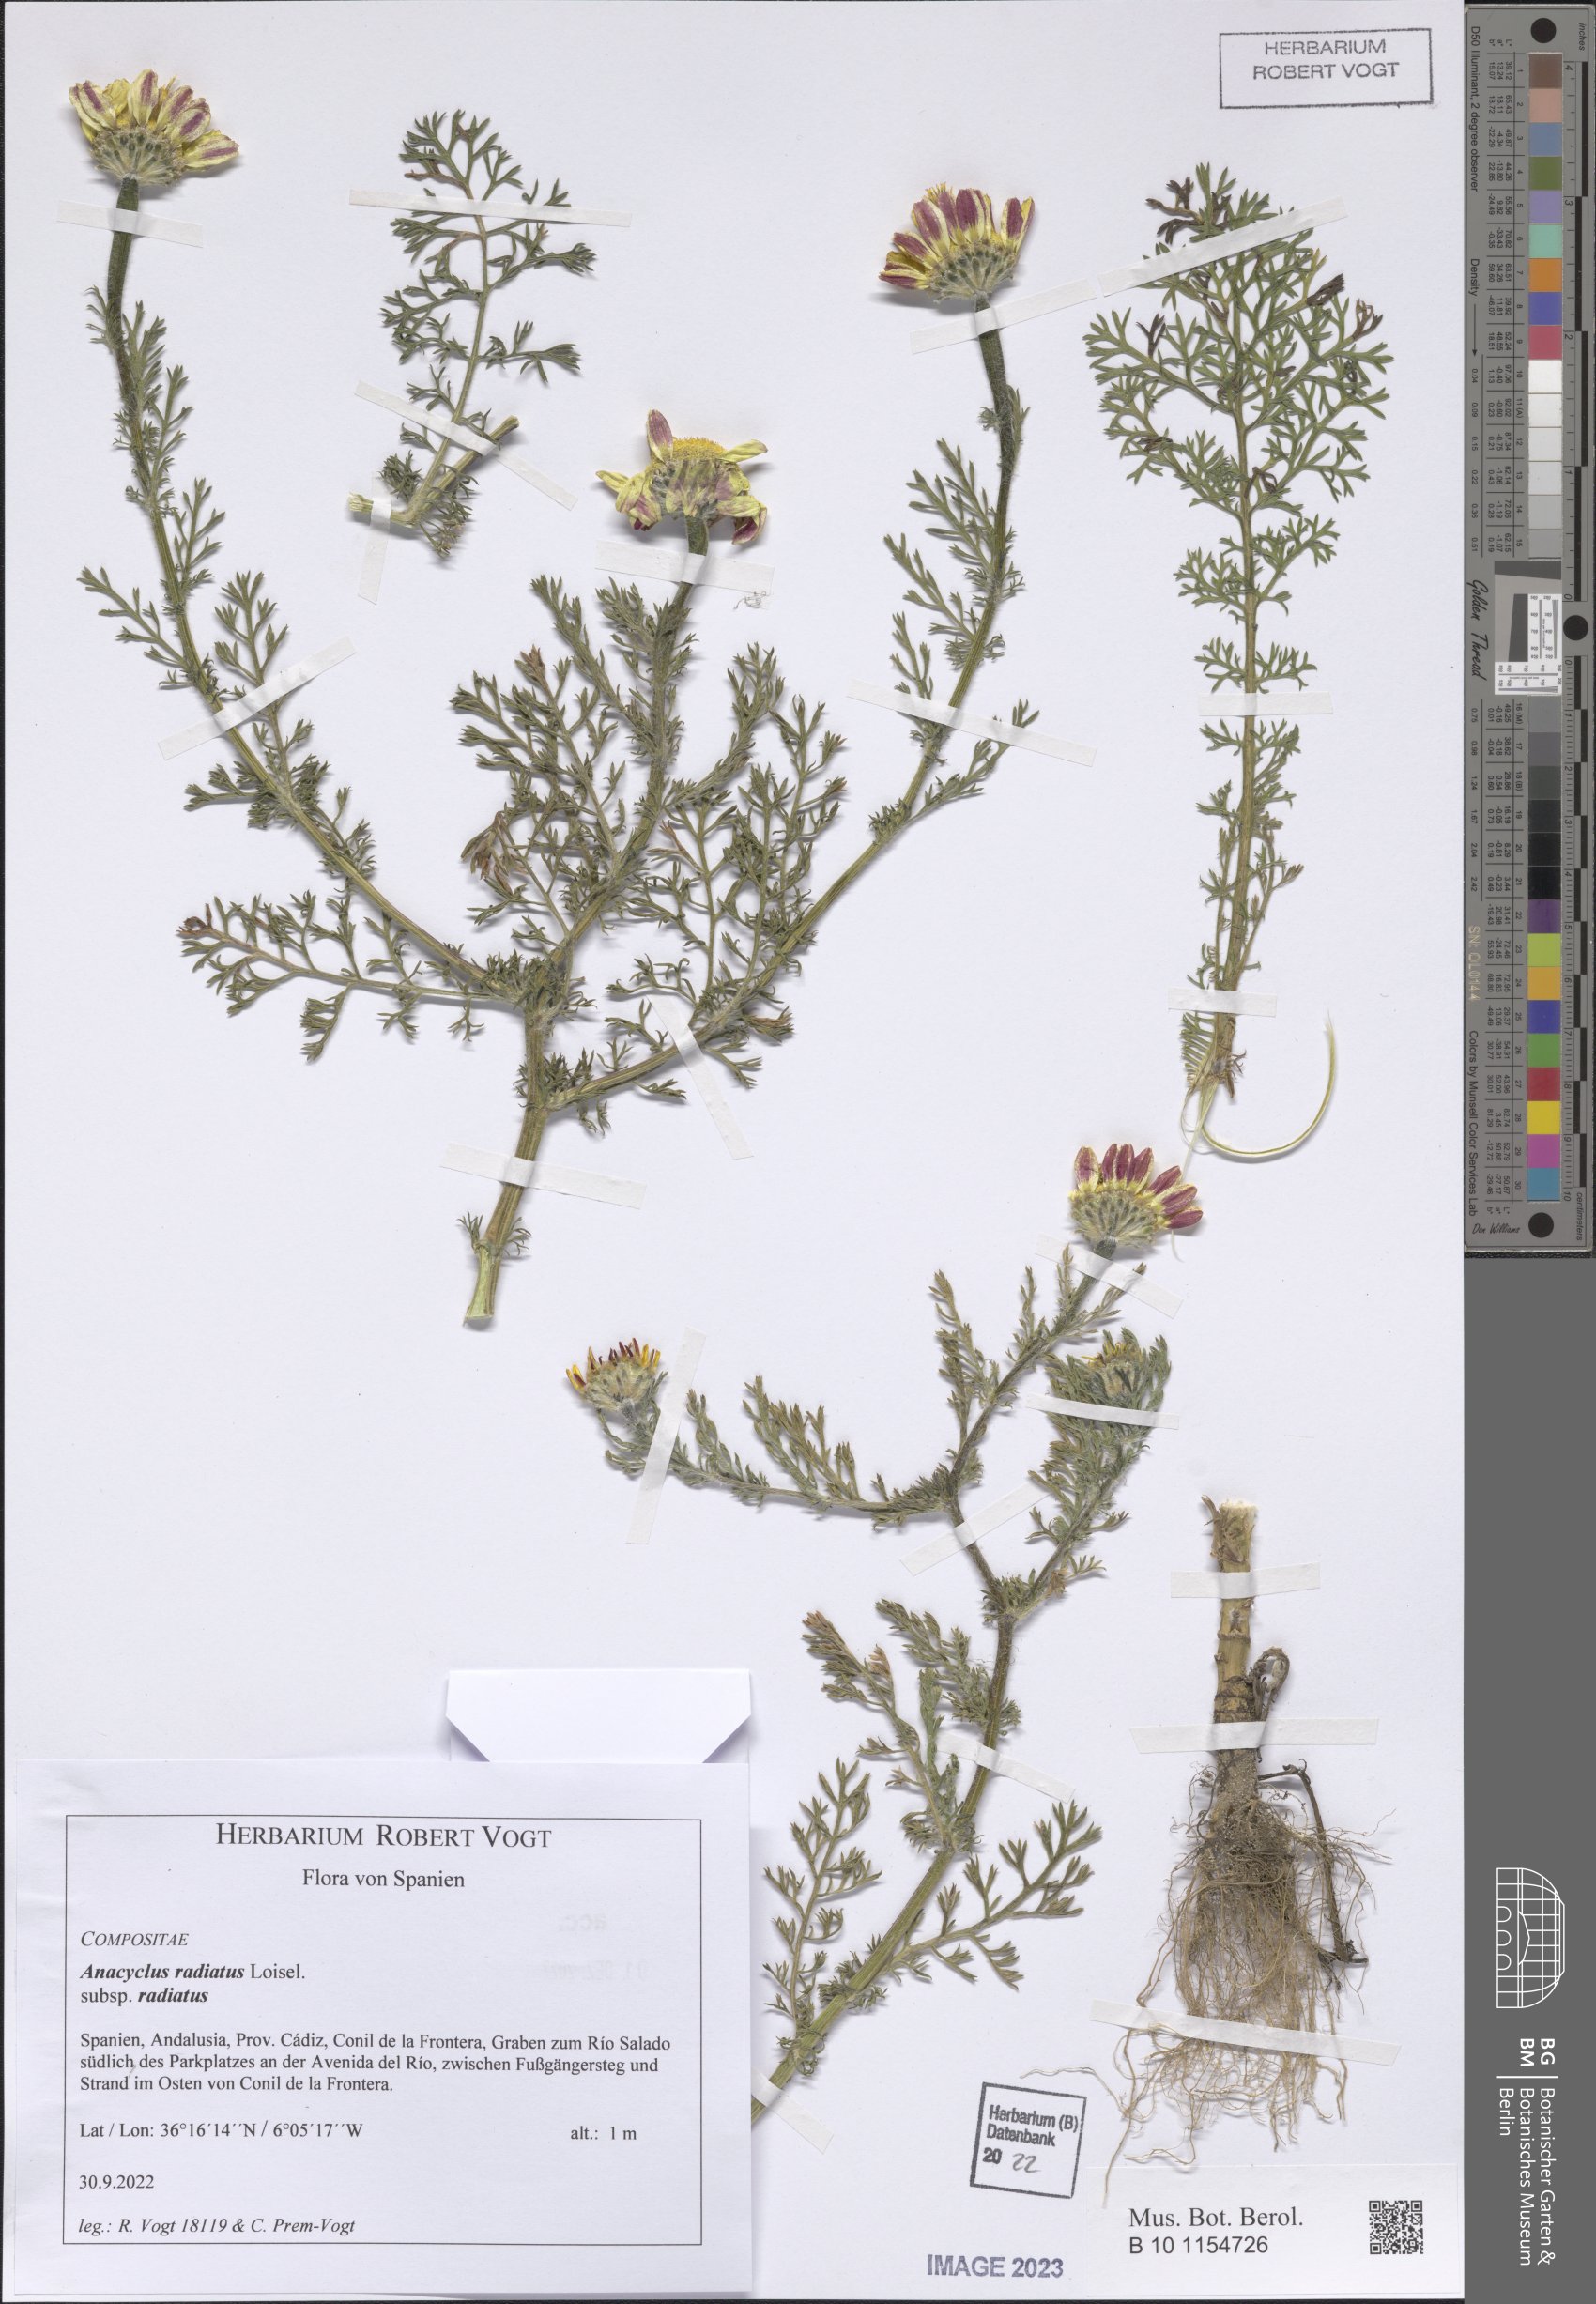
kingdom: Plantae
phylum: Tracheophyta
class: Magnoliopsida
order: Asterales
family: Asteraceae
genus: Anacyclus
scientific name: Anacyclus radiatus
